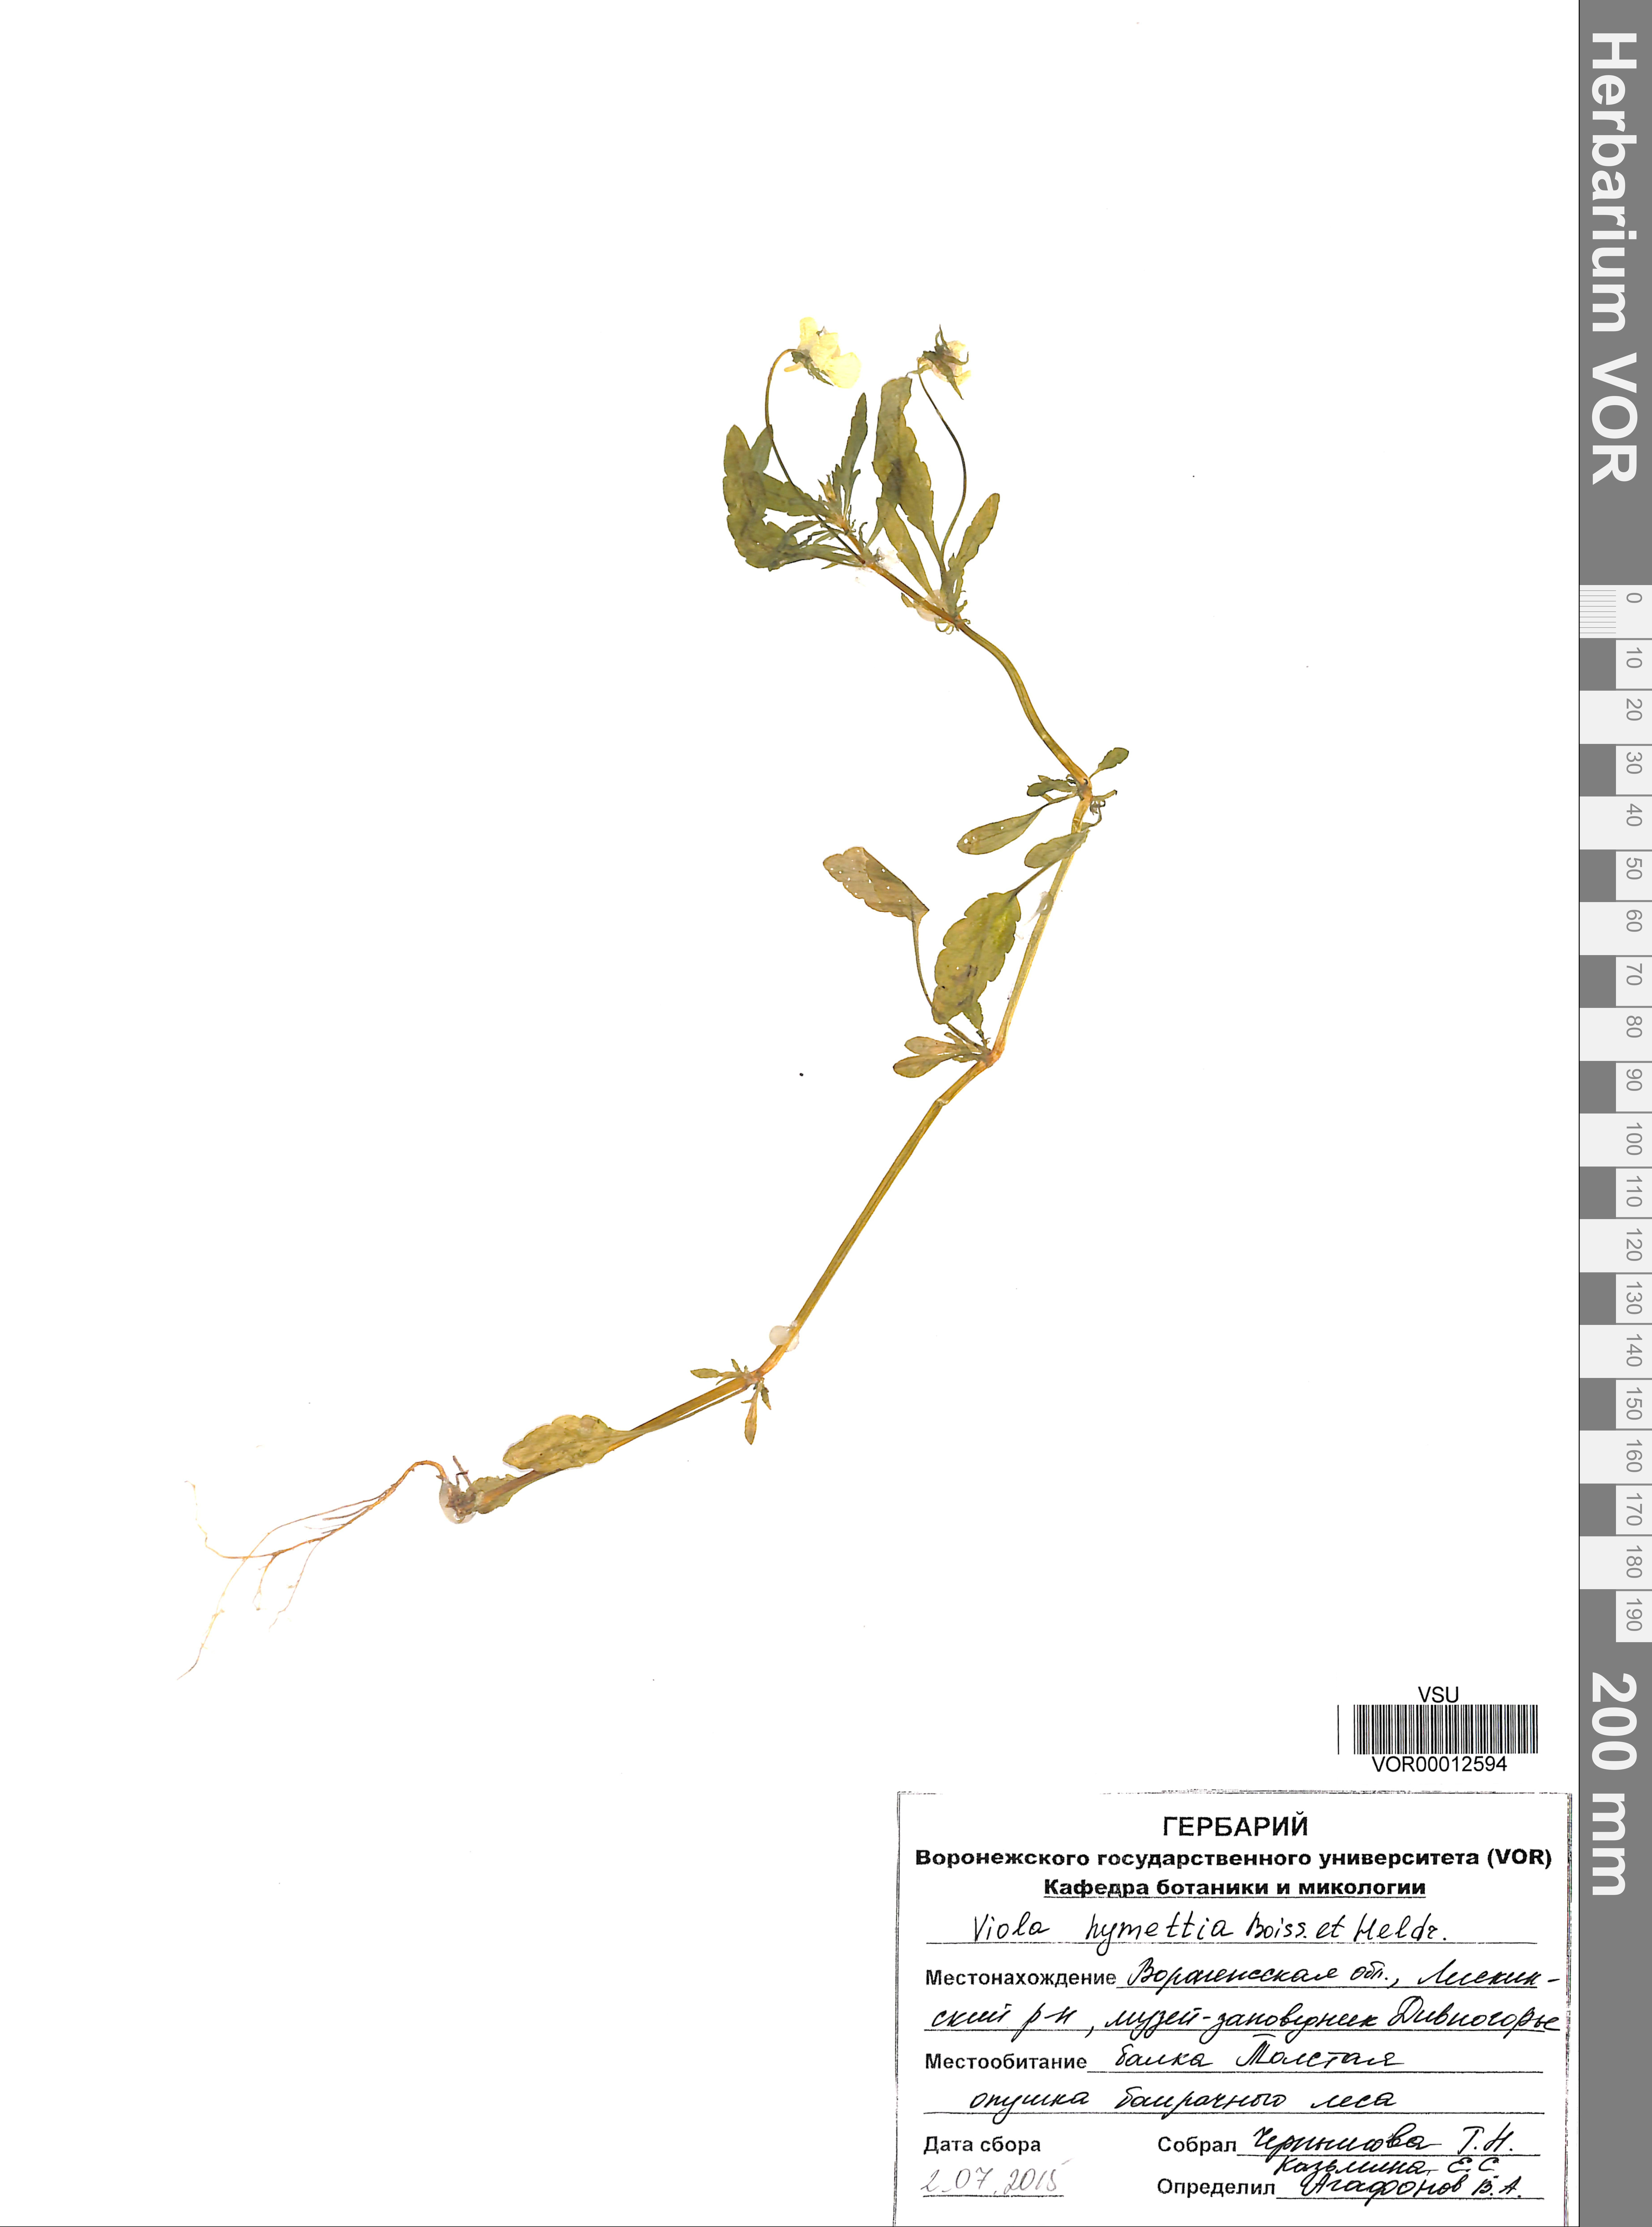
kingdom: Plantae
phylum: Tracheophyta
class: Magnoliopsida
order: Malpighiales
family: Violaceae
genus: Viola
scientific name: Viola hymettia
